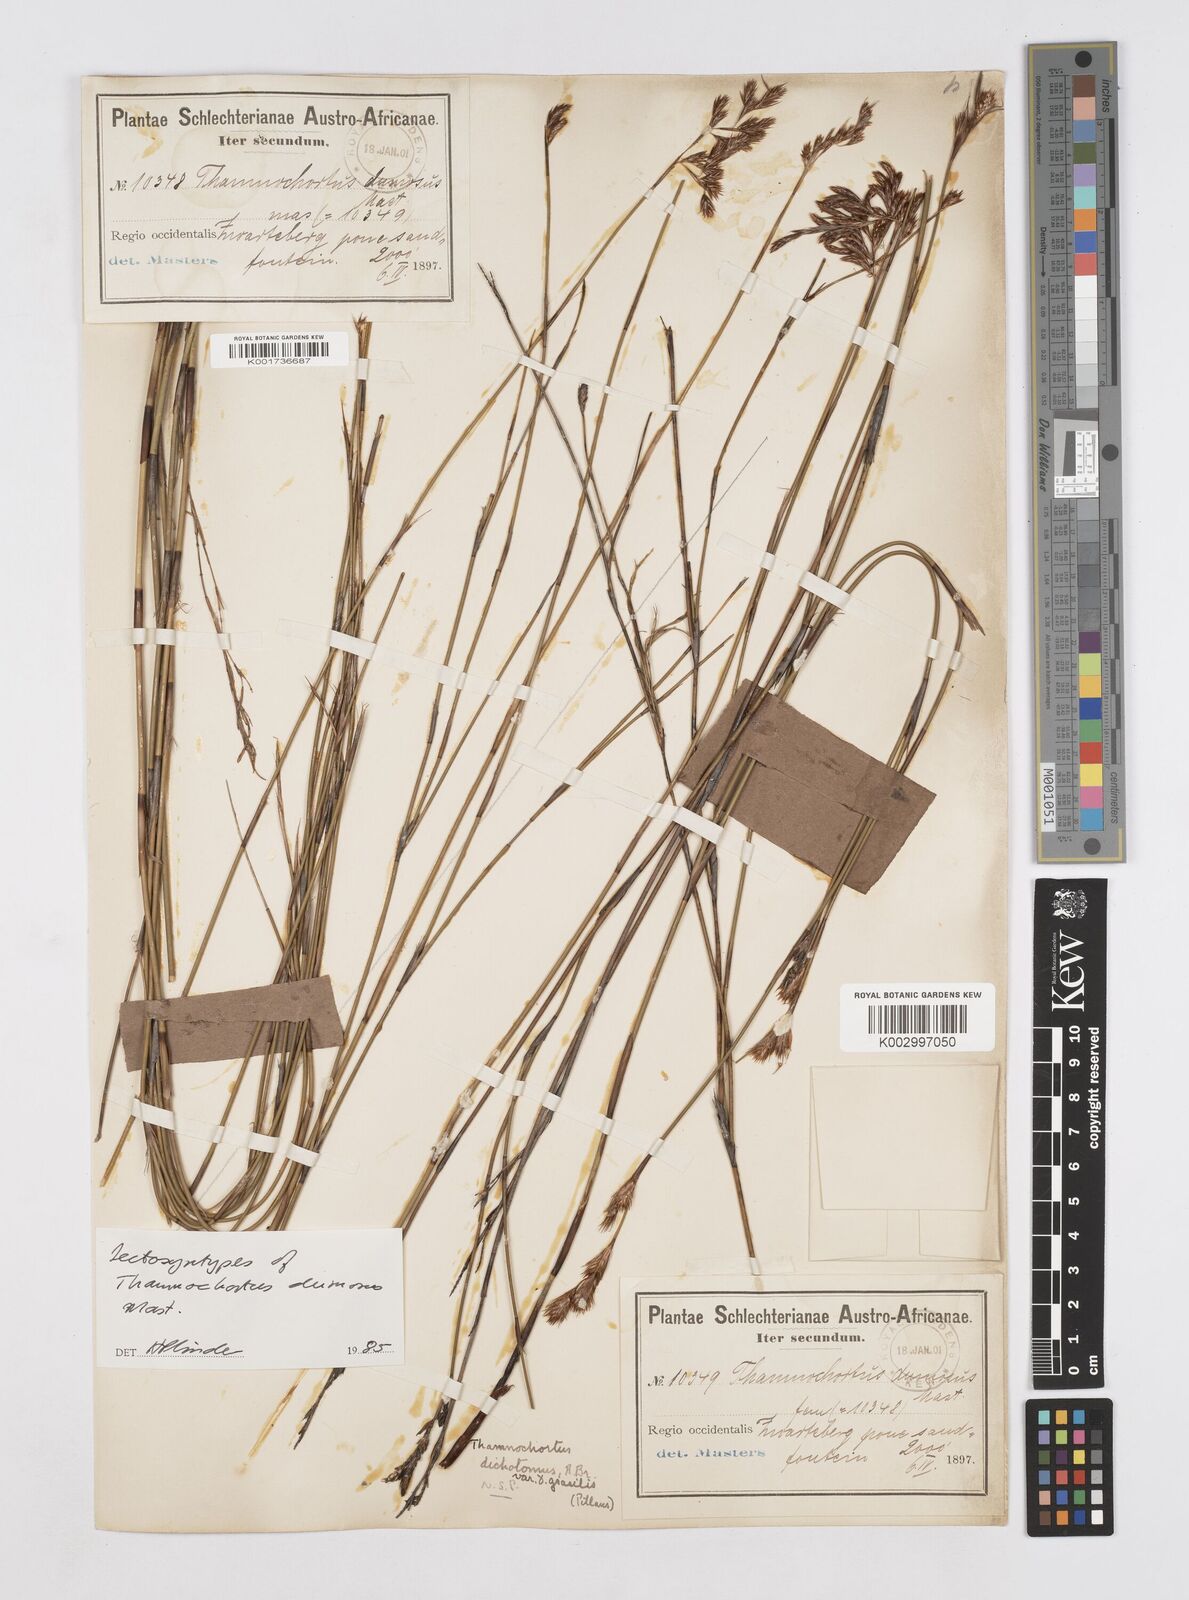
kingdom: Plantae
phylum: Tracheophyta
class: Liliopsida
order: Poales
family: Restionaceae
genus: Thamnochortus
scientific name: Thamnochortus gracilis
